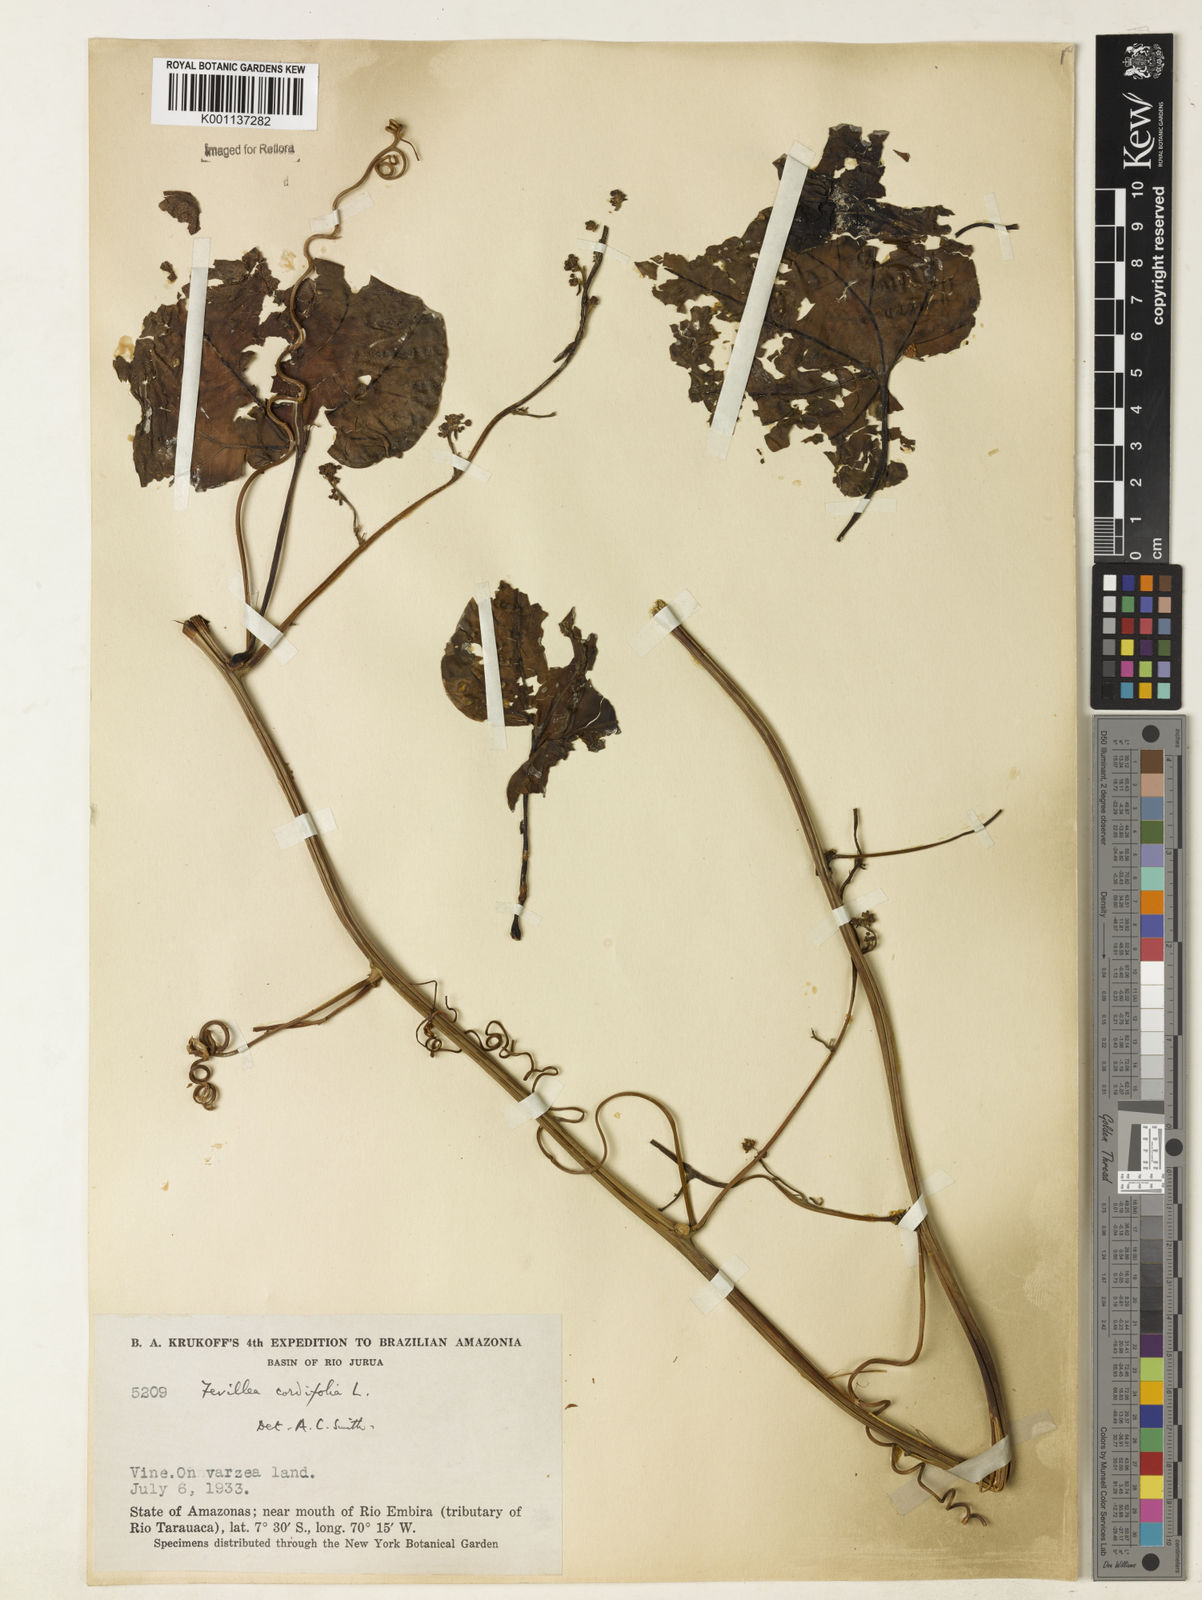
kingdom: Plantae
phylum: Tracheophyta
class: Magnoliopsida
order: Cucurbitales
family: Cucurbitaceae
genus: Fevillea
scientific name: Fevillea cordifolia
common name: Antidote-vine
